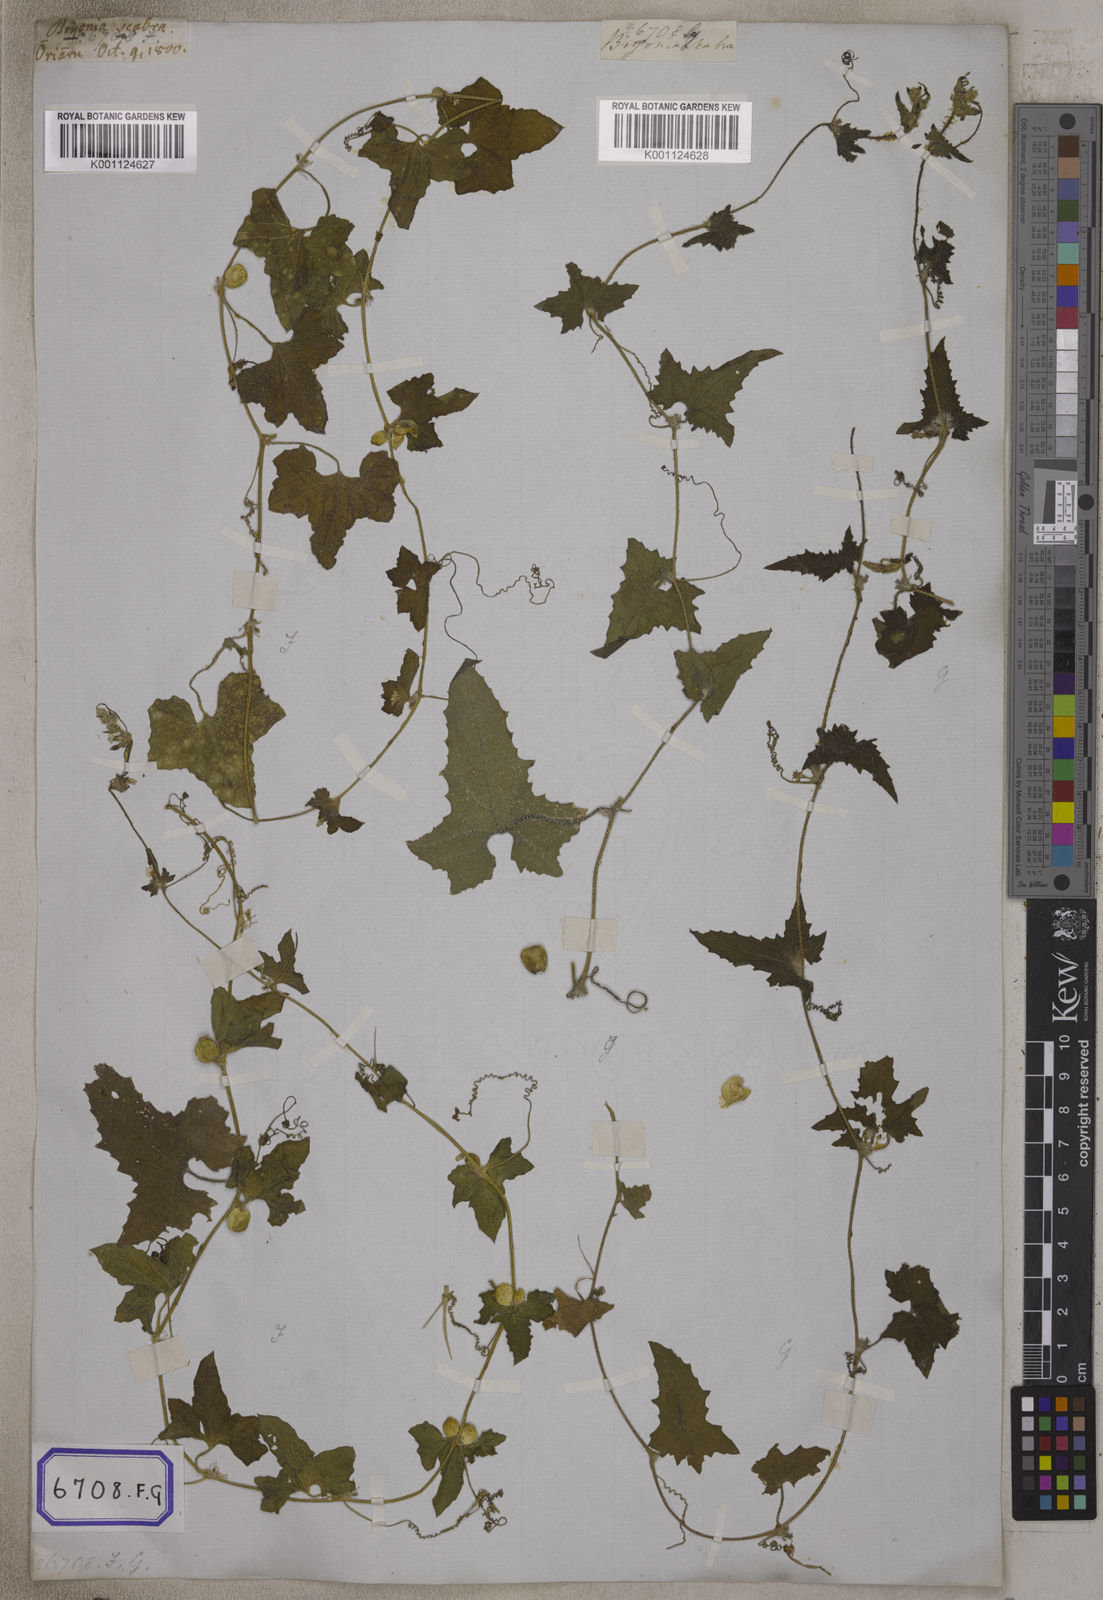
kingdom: Plantae
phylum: Tracheophyta
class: Magnoliopsida
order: Cucurbitales
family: Cucurbitaceae
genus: Bryonia
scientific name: Bryonia
